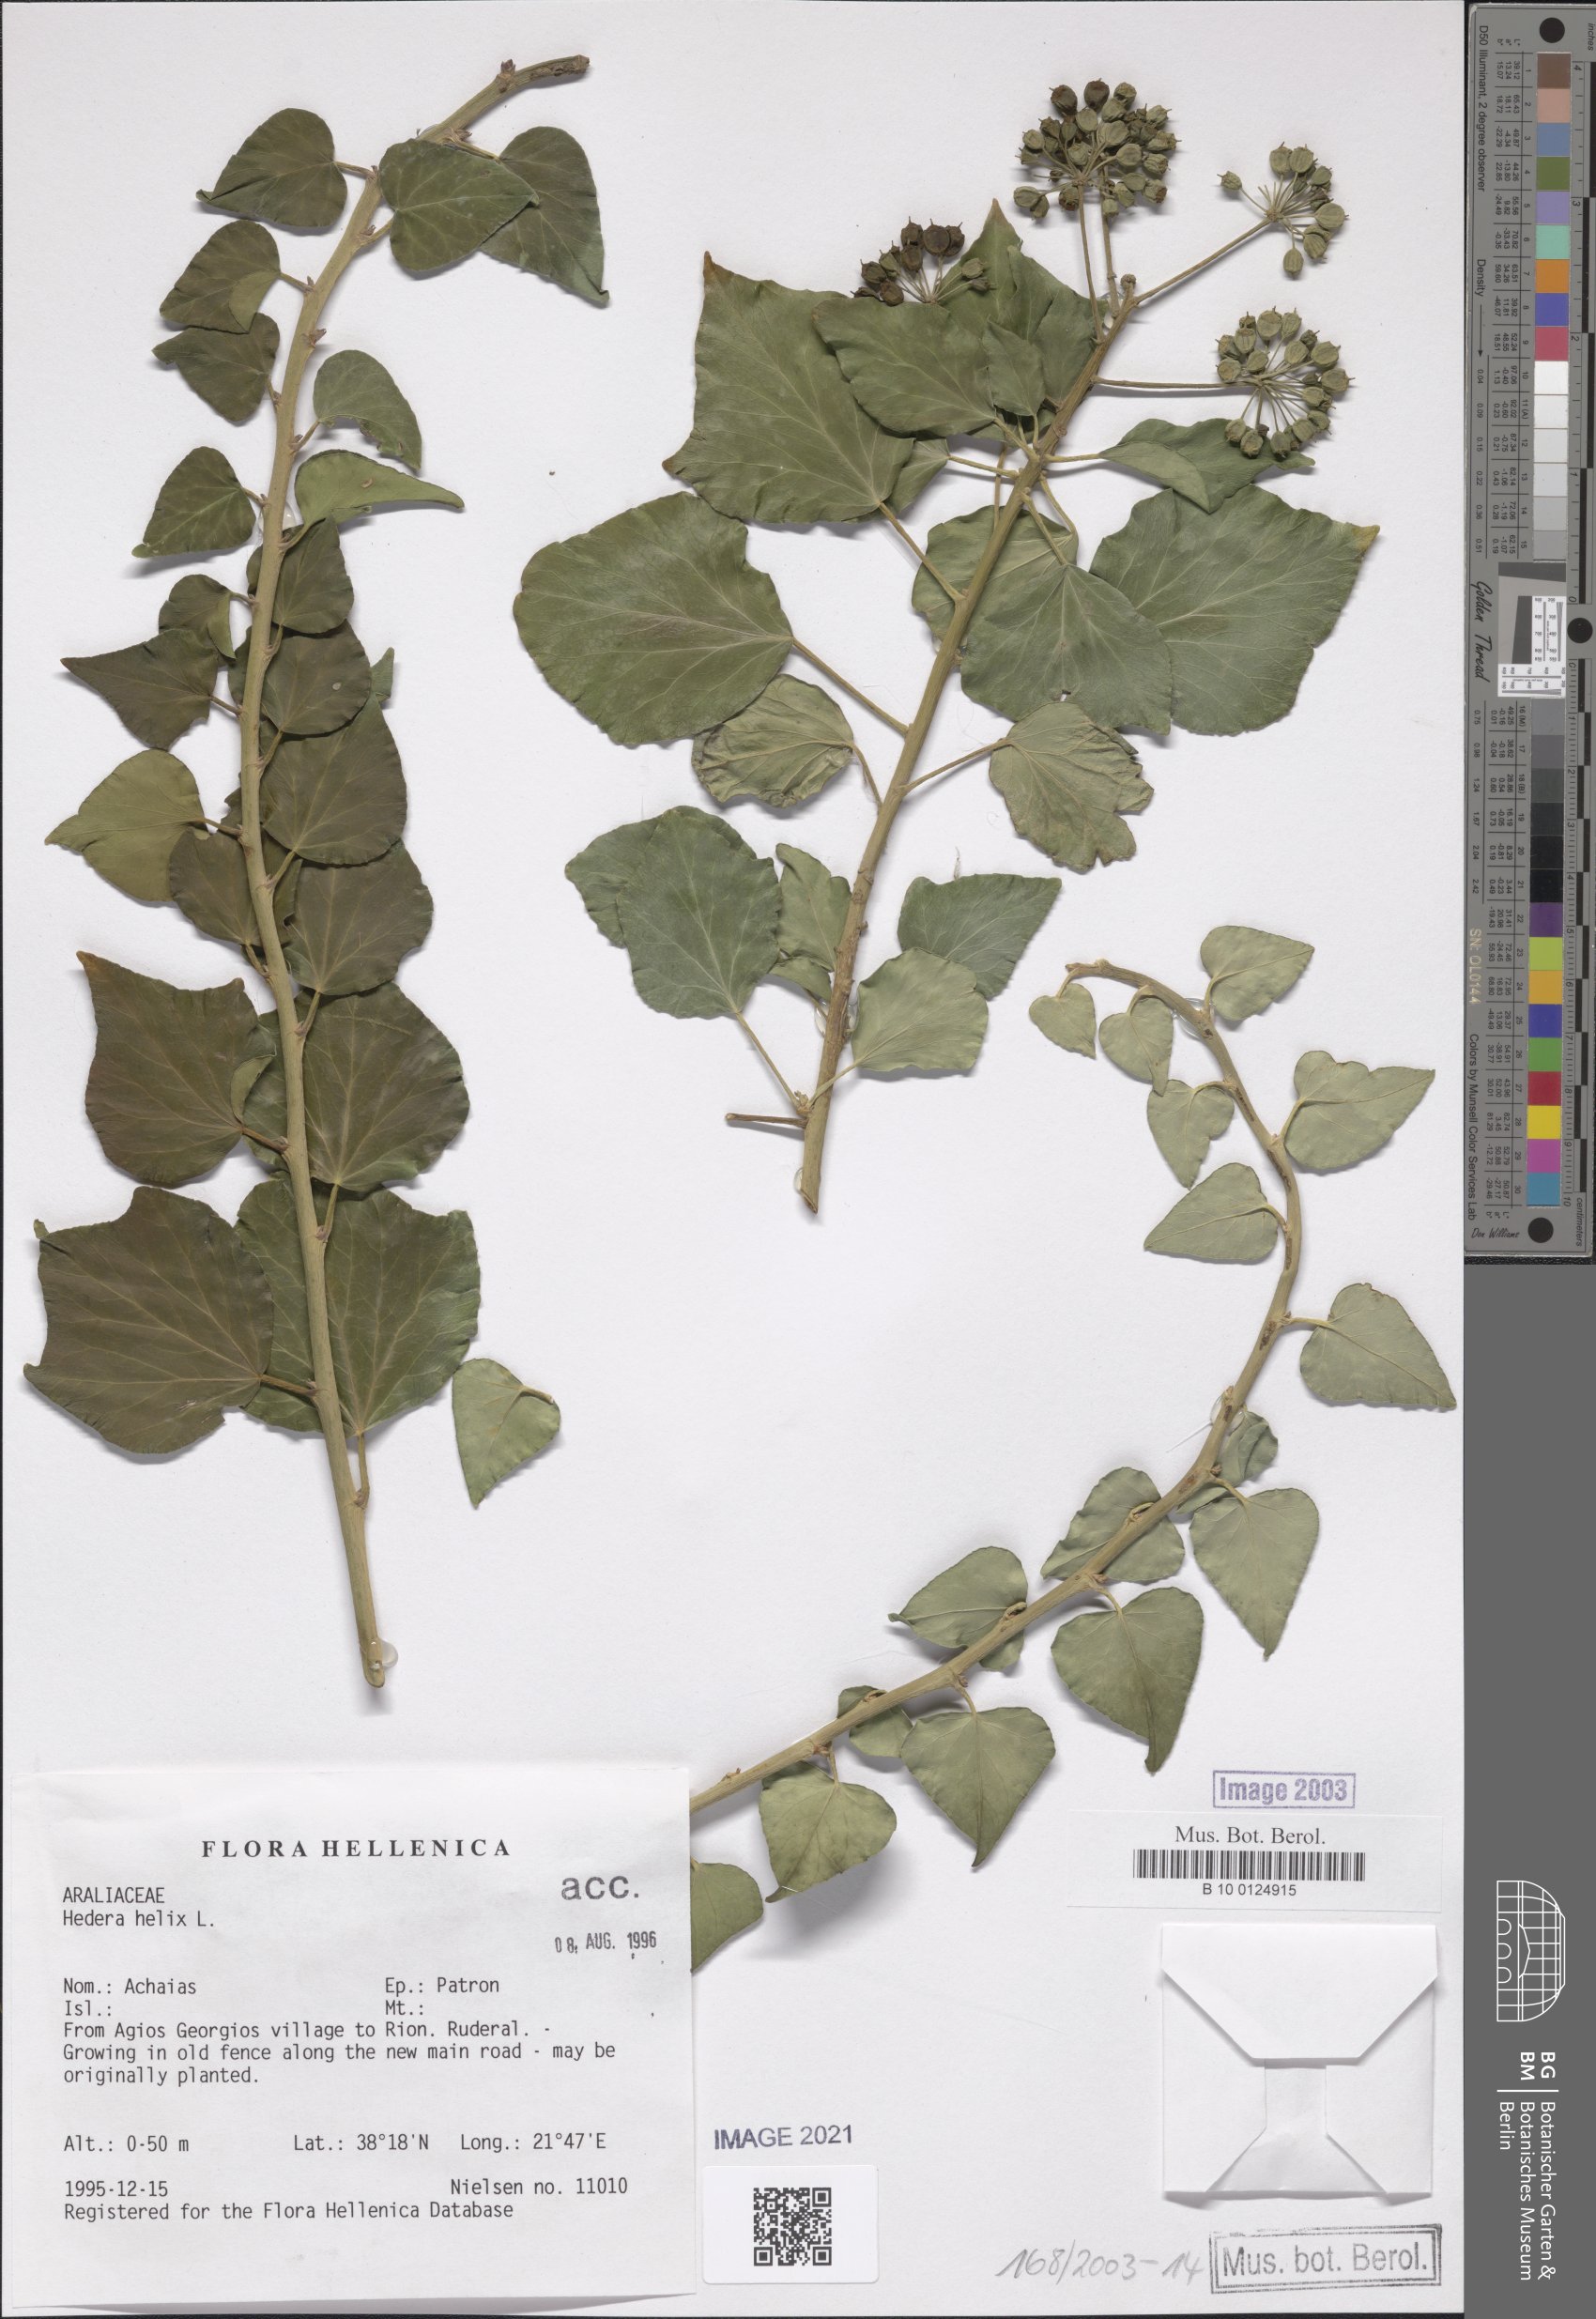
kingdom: Plantae
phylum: Tracheophyta
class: Magnoliopsida
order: Apiales
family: Araliaceae
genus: Hedera
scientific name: Hedera helix
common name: Ivy
